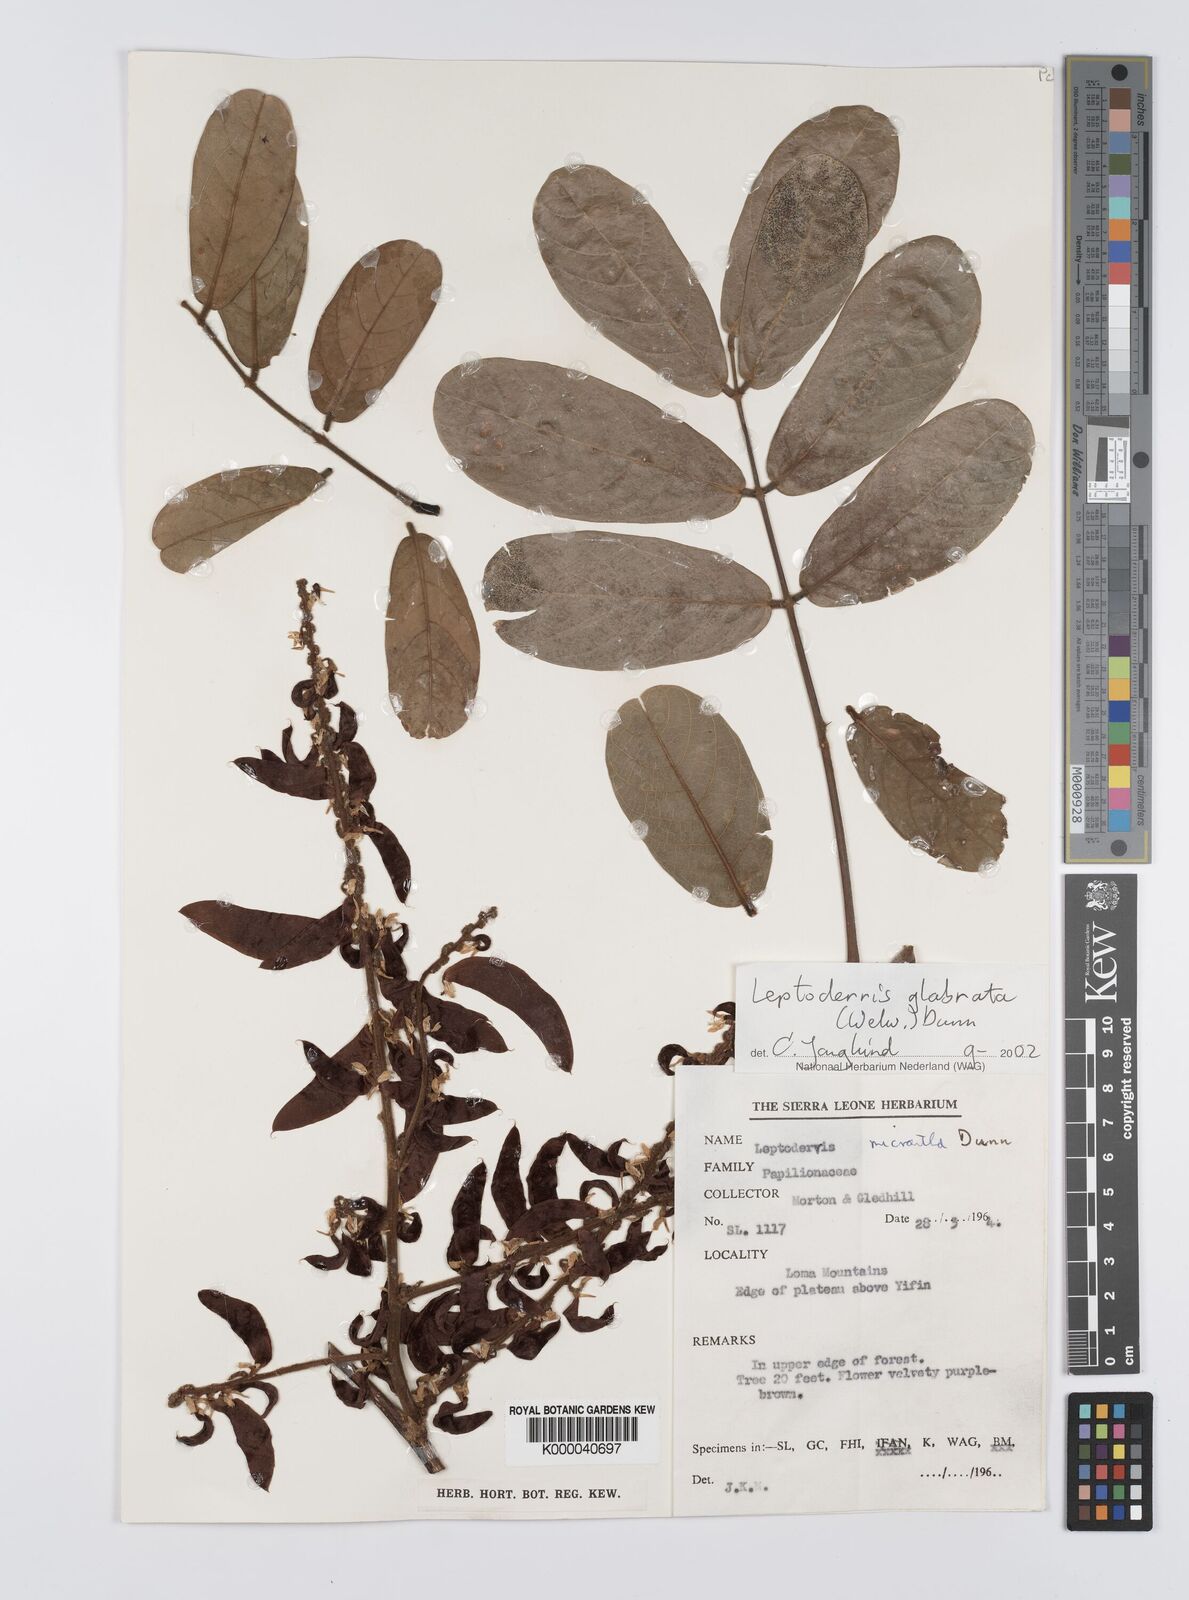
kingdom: Plantae
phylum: Tracheophyta
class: Magnoliopsida
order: Fabales
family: Fabaceae
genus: Leptoderris
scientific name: Leptoderris glabrata
